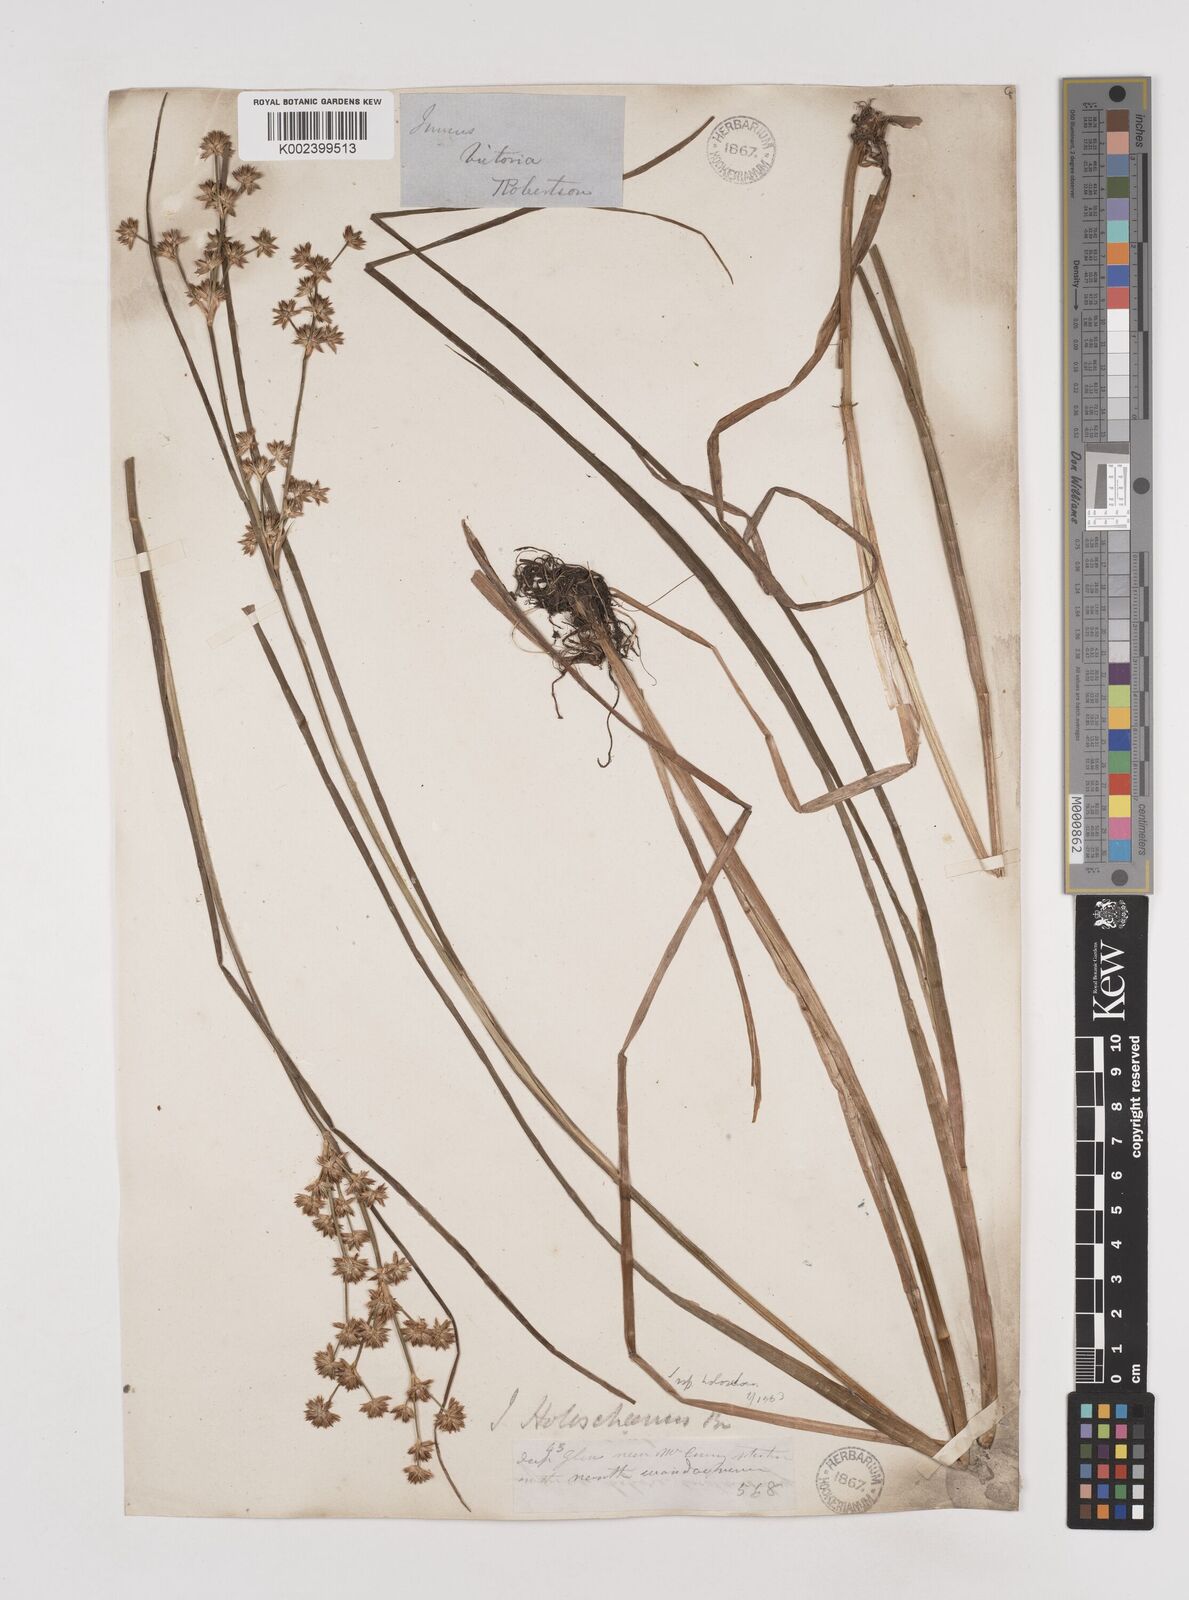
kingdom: Plantae
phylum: Tracheophyta
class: Liliopsida
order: Poales
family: Juncaceae
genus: Juncus
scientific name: Juncus holoschoenus
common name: Joint-leaf rush
